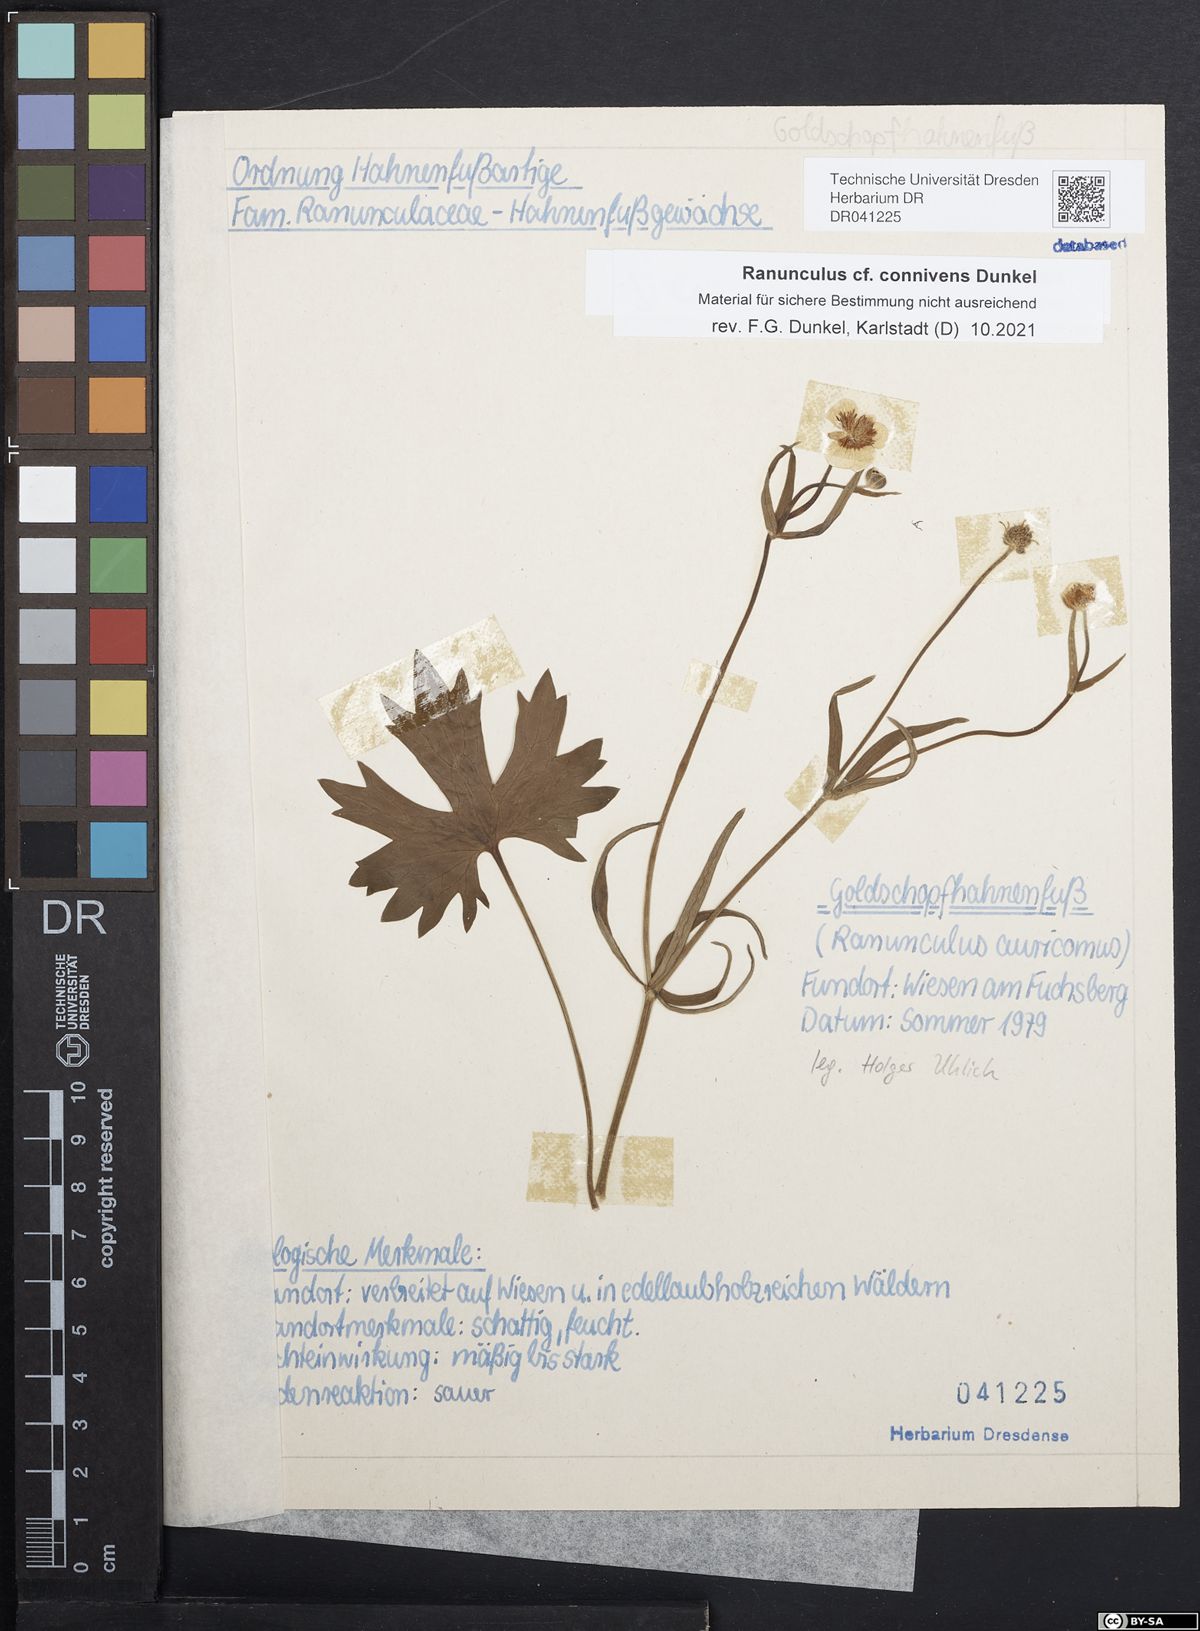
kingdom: Plantae
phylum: Tracheophyta
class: Magnoliopsida
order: Ranunculales
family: Ranunculaceae
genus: Ranunculus
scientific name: Ranunculus connivens
